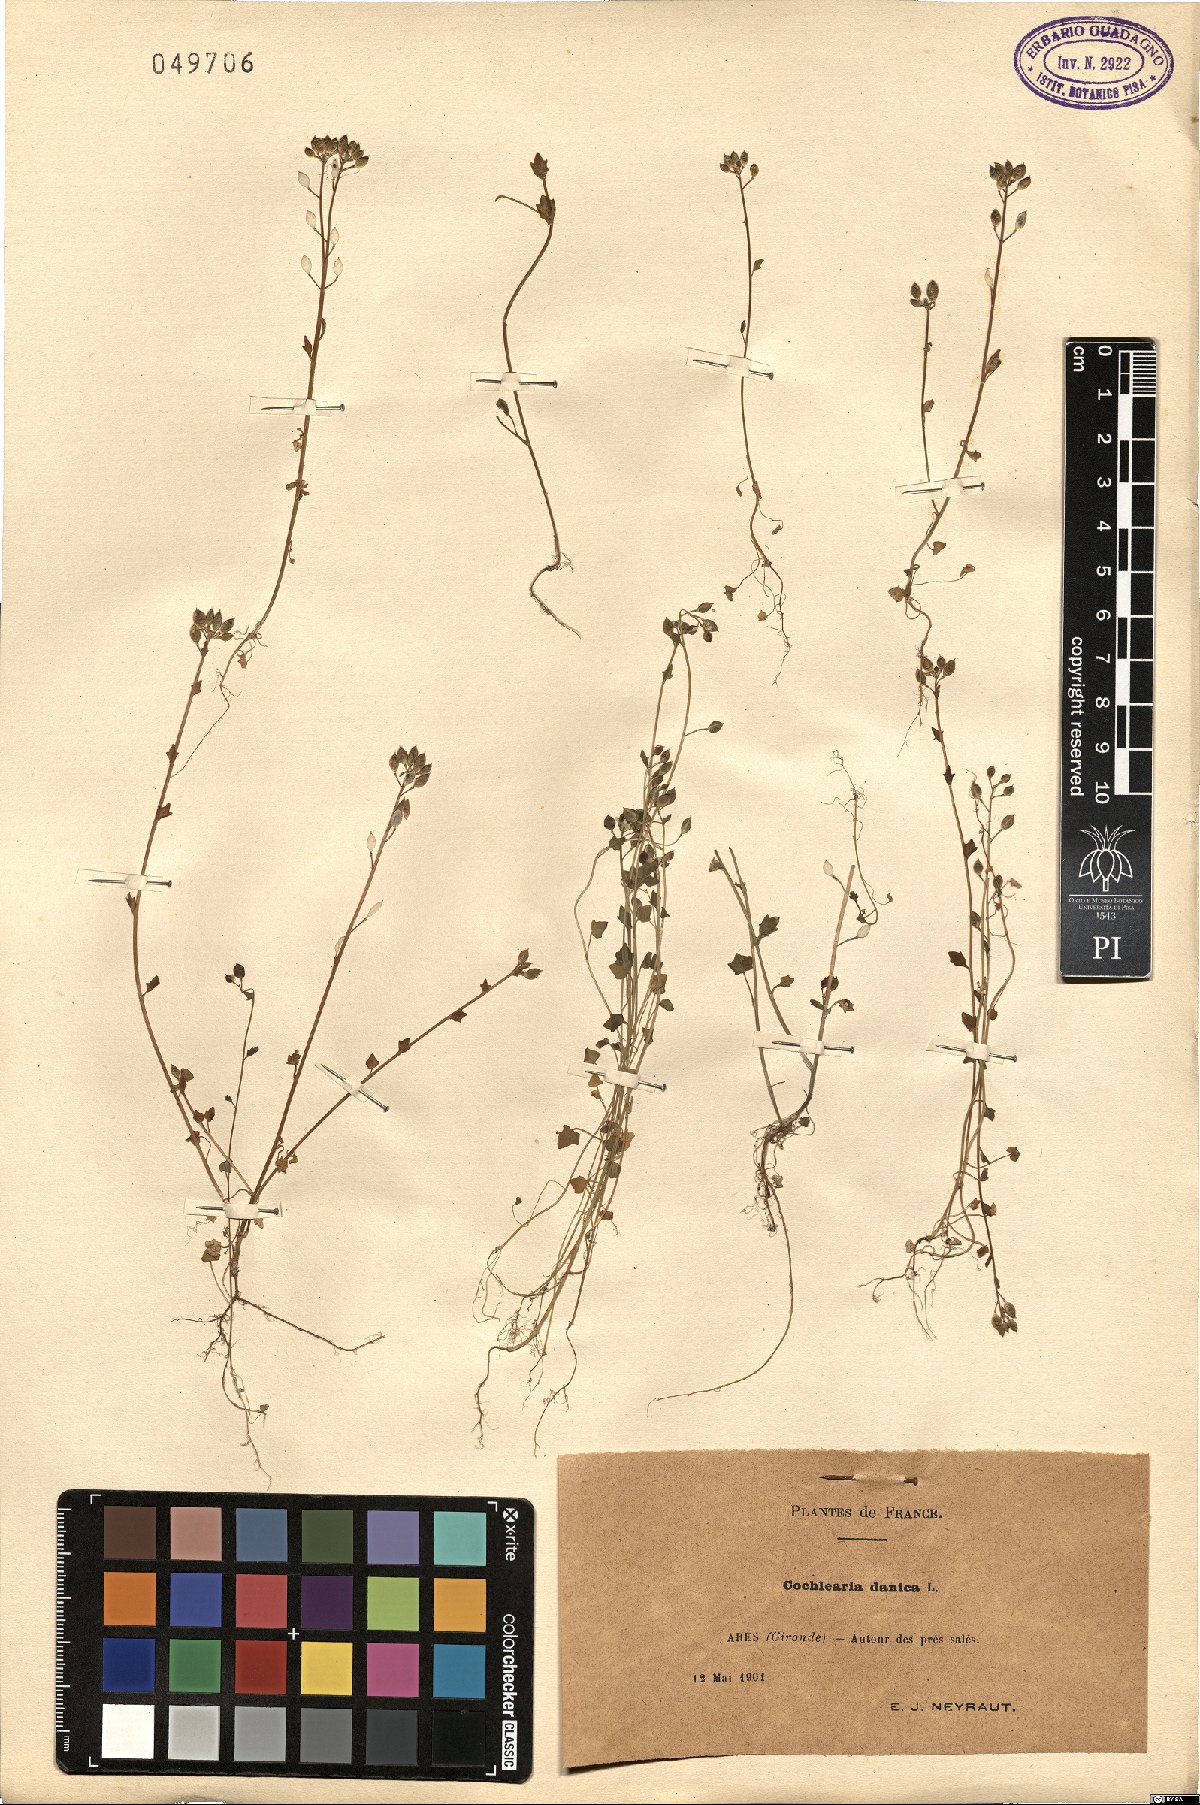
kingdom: Plantae
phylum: Tracheophyta
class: Magnoliopsida
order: Brassicales
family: Brassicaceae
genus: Cochlearia
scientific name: Cochlearia danica
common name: Early scurvygrass
